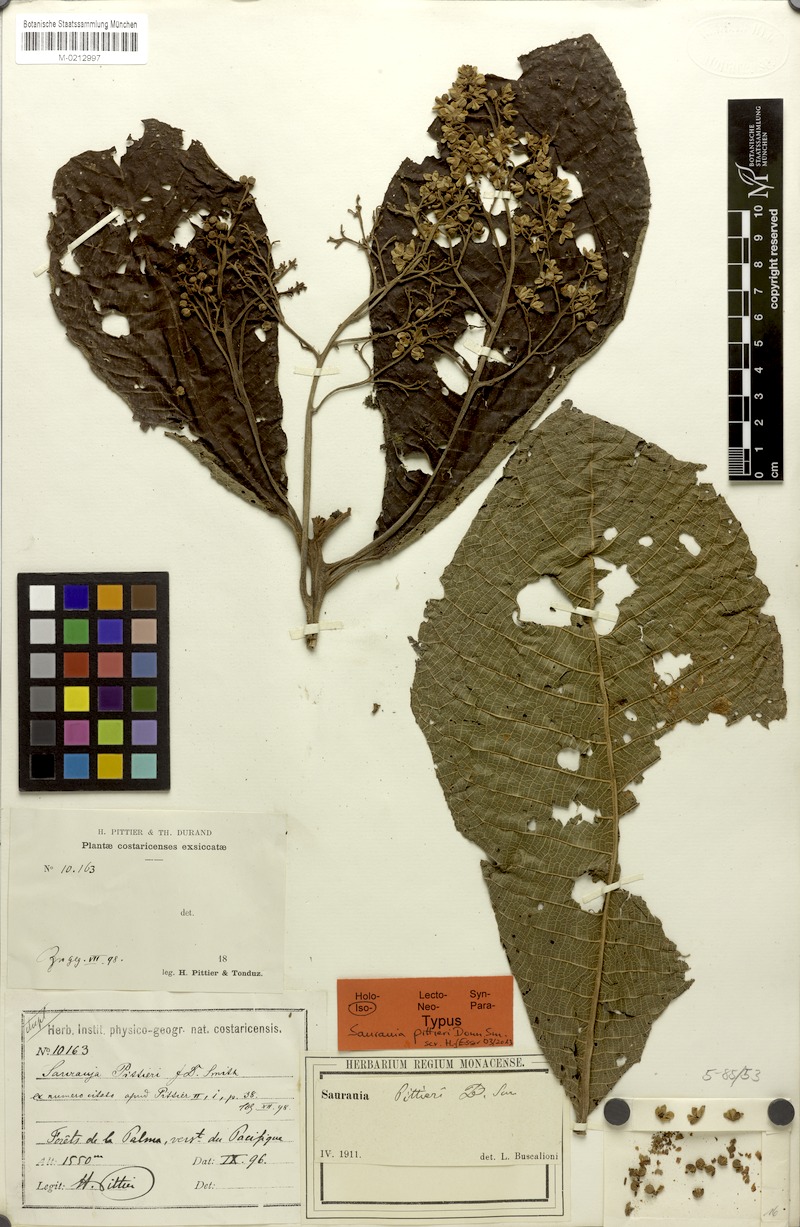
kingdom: Plantae
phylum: Tracheophyta
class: Magnoliopsida
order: Ericales
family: Actinidiaceae
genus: Saurauia
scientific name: Saurauia pittieri
